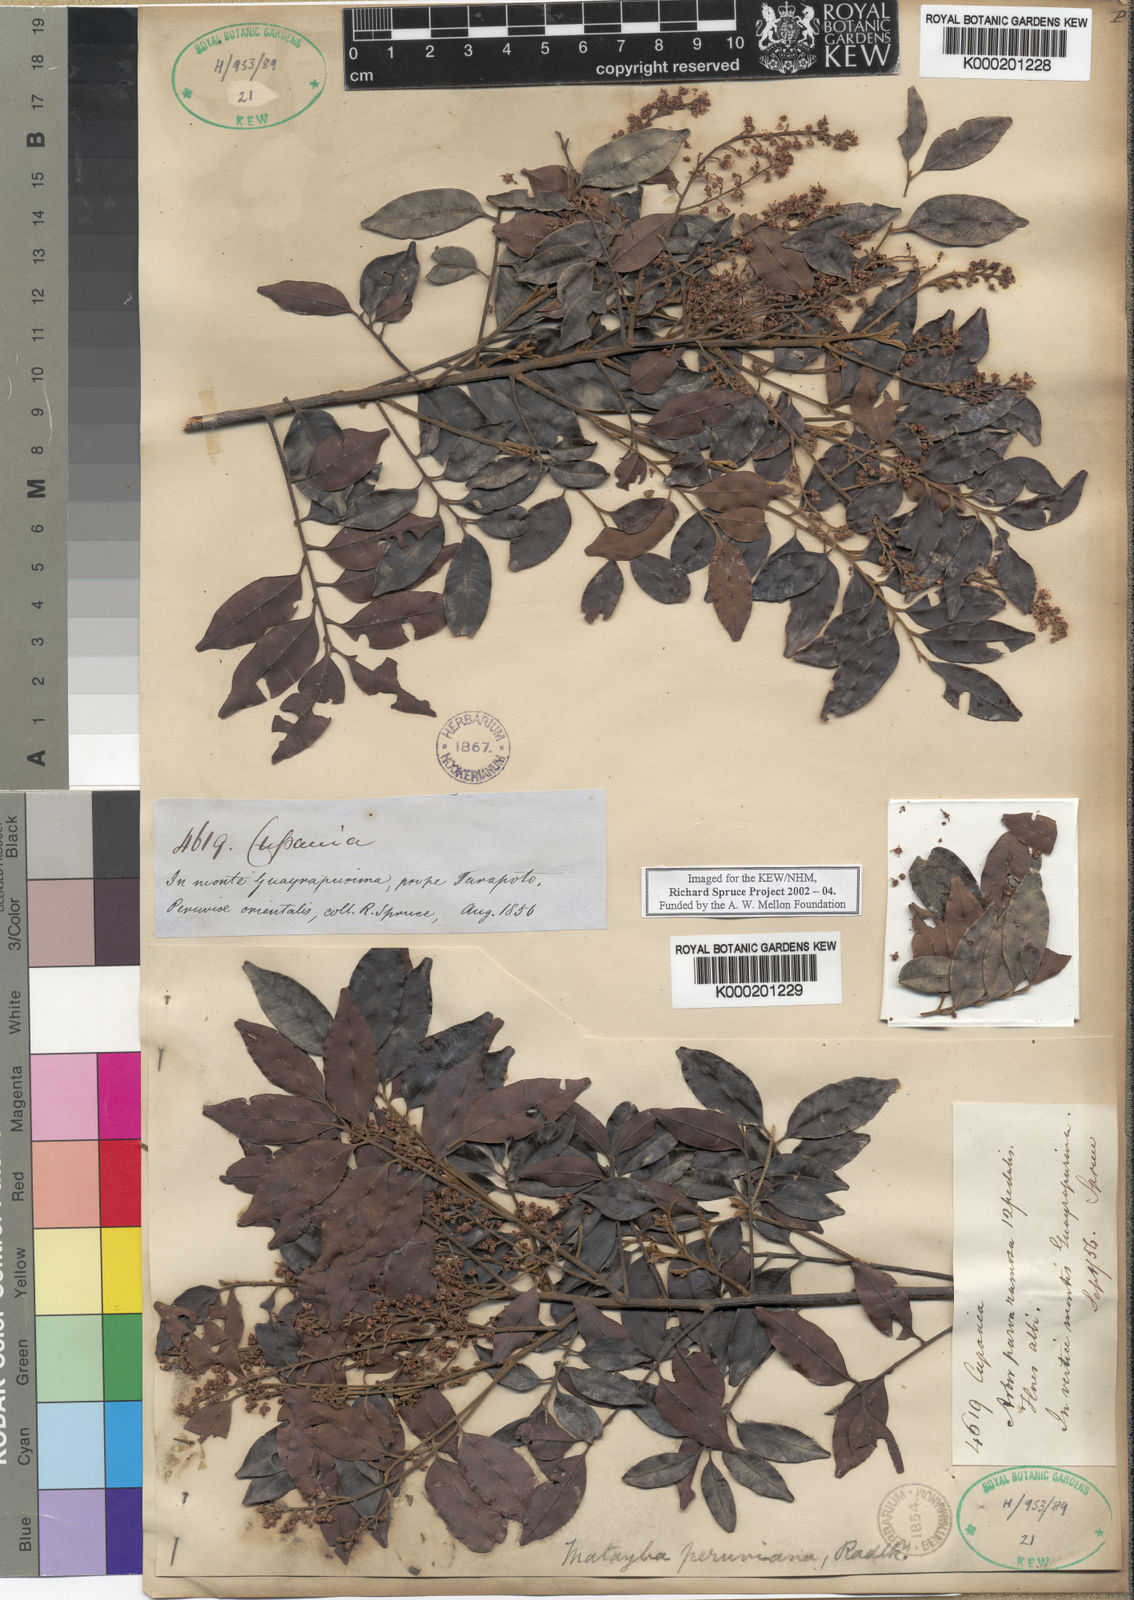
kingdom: Plantae
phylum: Tracheophyta
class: Magnoliopsida
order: Sapindales
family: Sapindaceae
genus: Matayba
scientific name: Matayba peruviana
